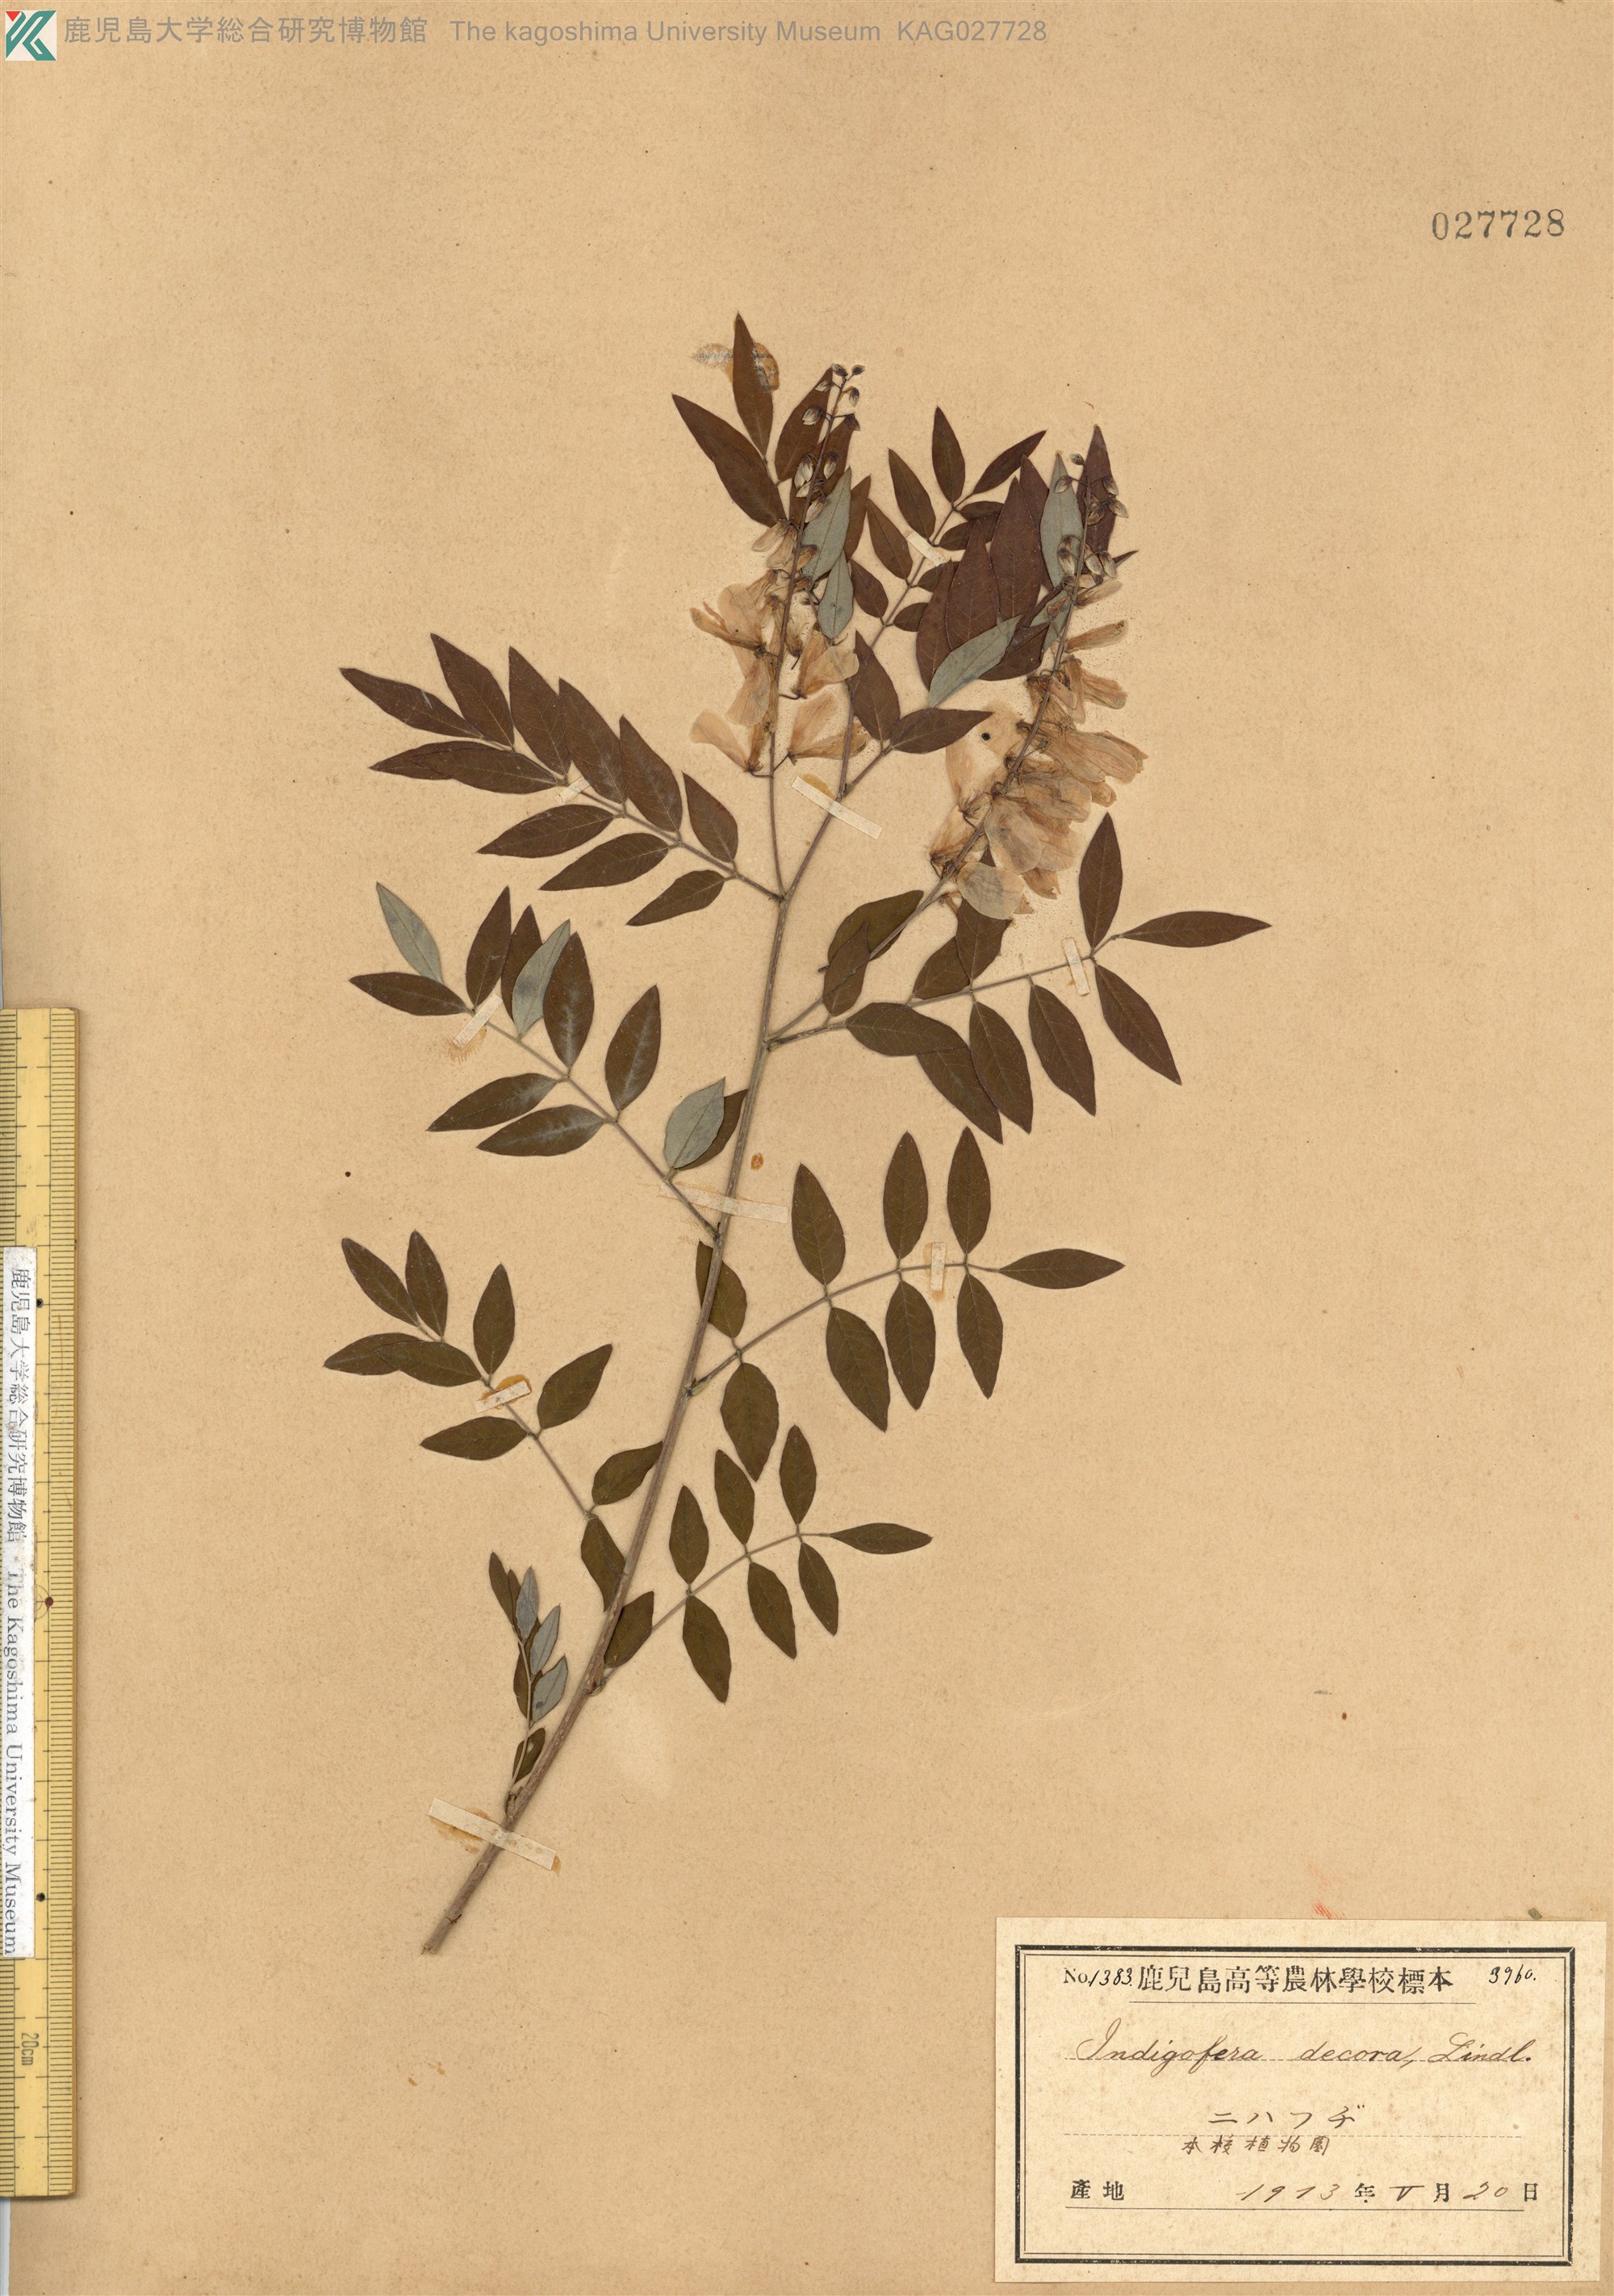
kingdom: Plantae
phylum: Tracheophyta
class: Magnoliopsida
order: Fabales
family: Fabaceae
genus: Indigofera
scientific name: Indigofera incarnata
